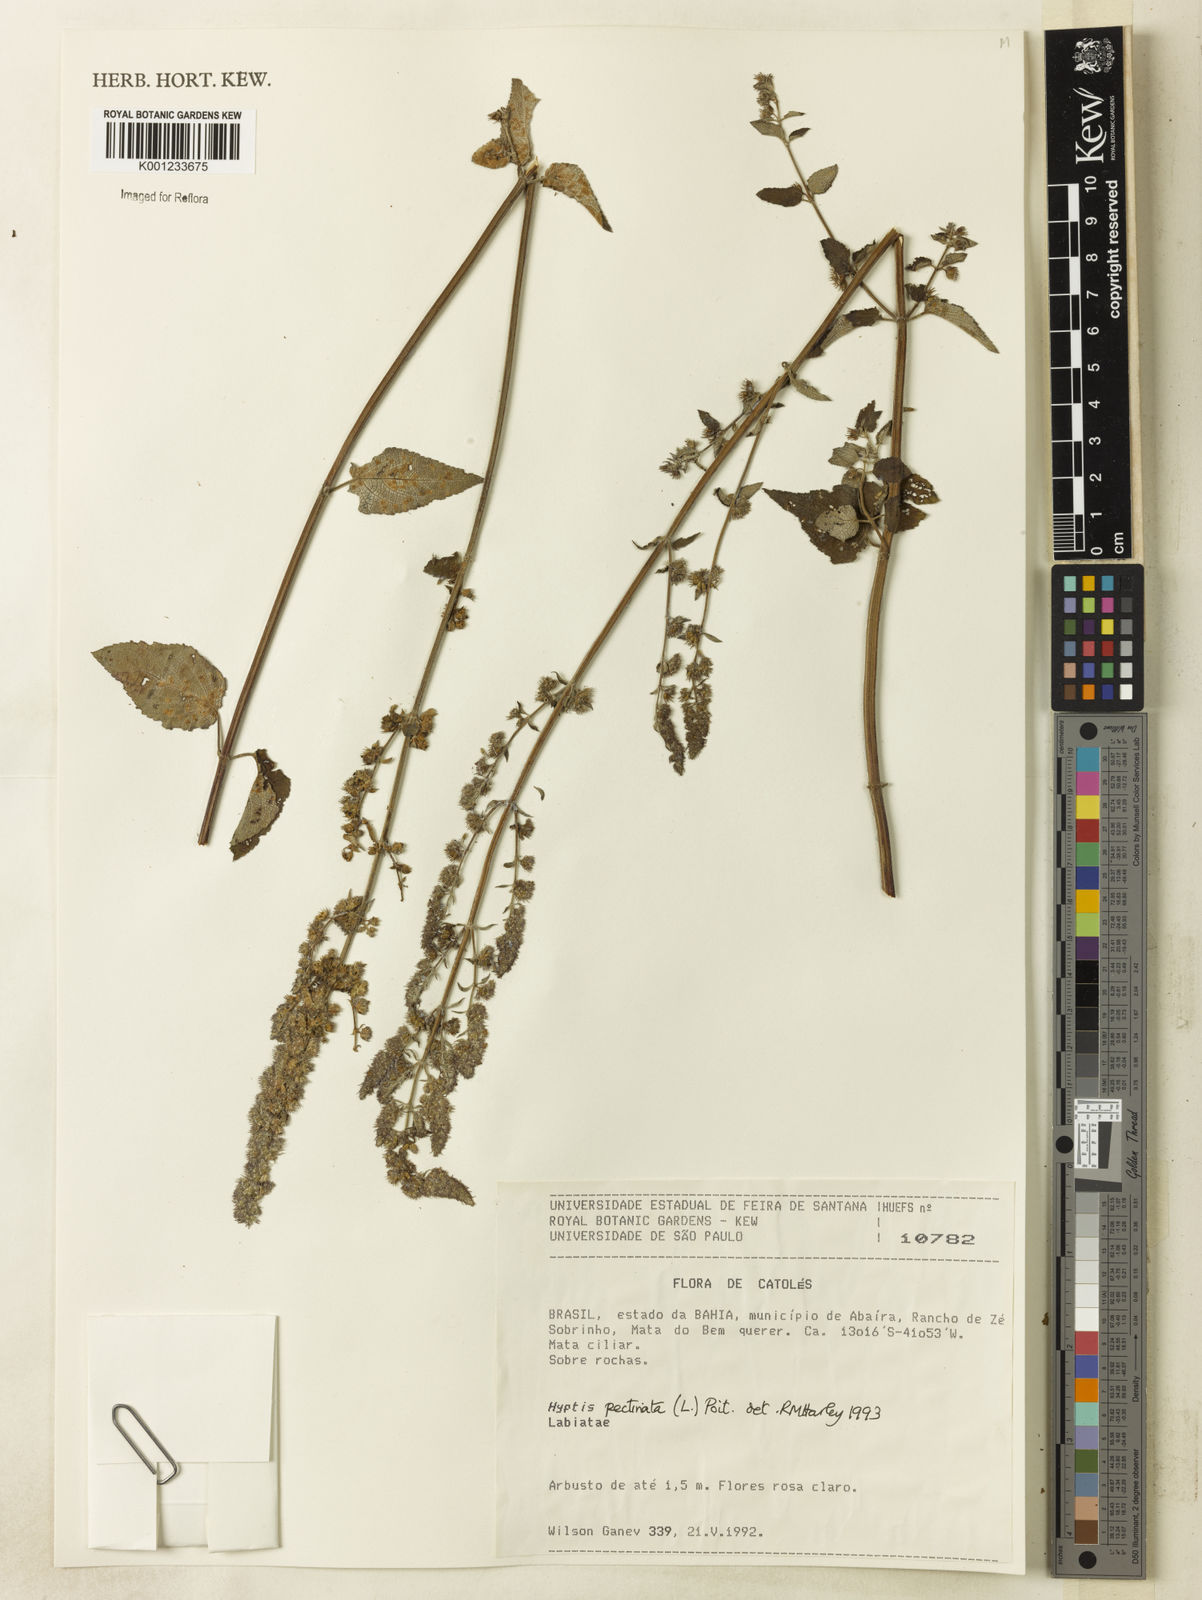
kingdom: Plantae
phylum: Tracheophyta
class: Magnoliopsida
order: Lamiales
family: Lamiaceae
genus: Mesosphaerum
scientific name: Mesosphaerum pectinatum
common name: Comb hyptis
